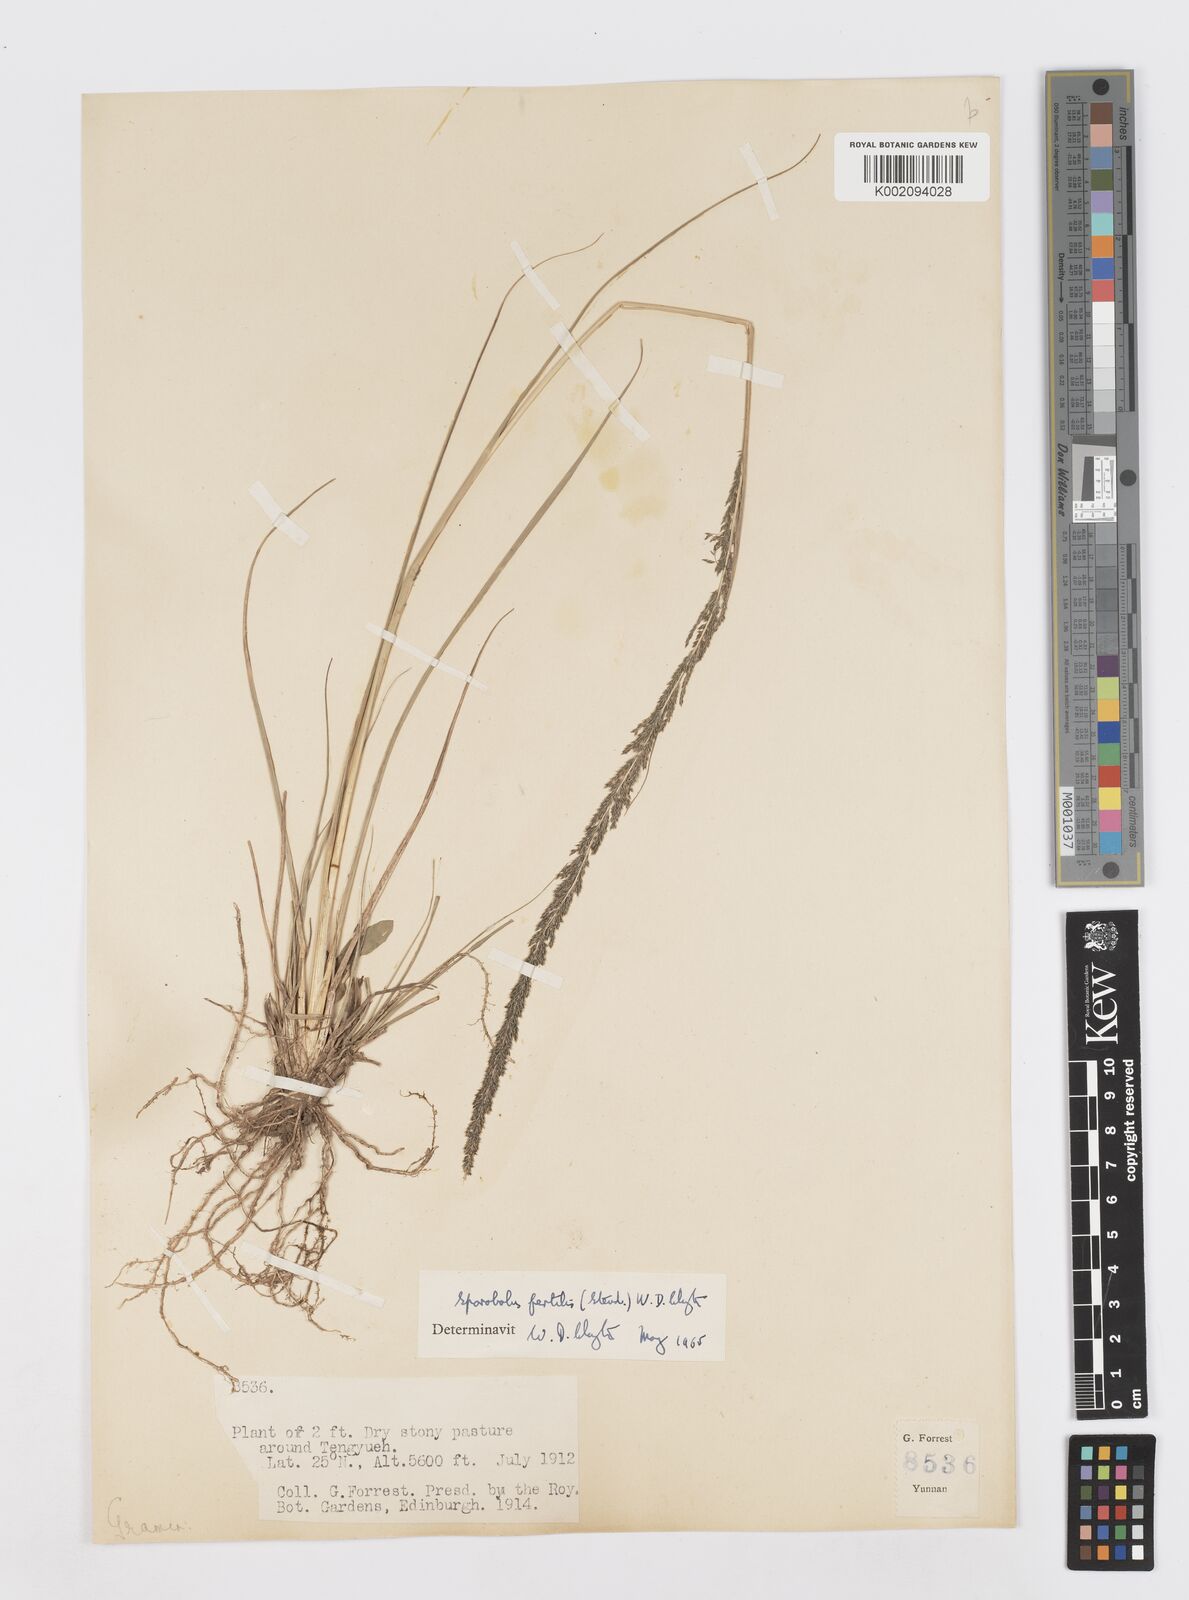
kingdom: Plantae
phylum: Tracheophyta
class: Liliopsida
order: Poales
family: Poaceae
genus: Sporobolus
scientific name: Sporobolus fertilis
